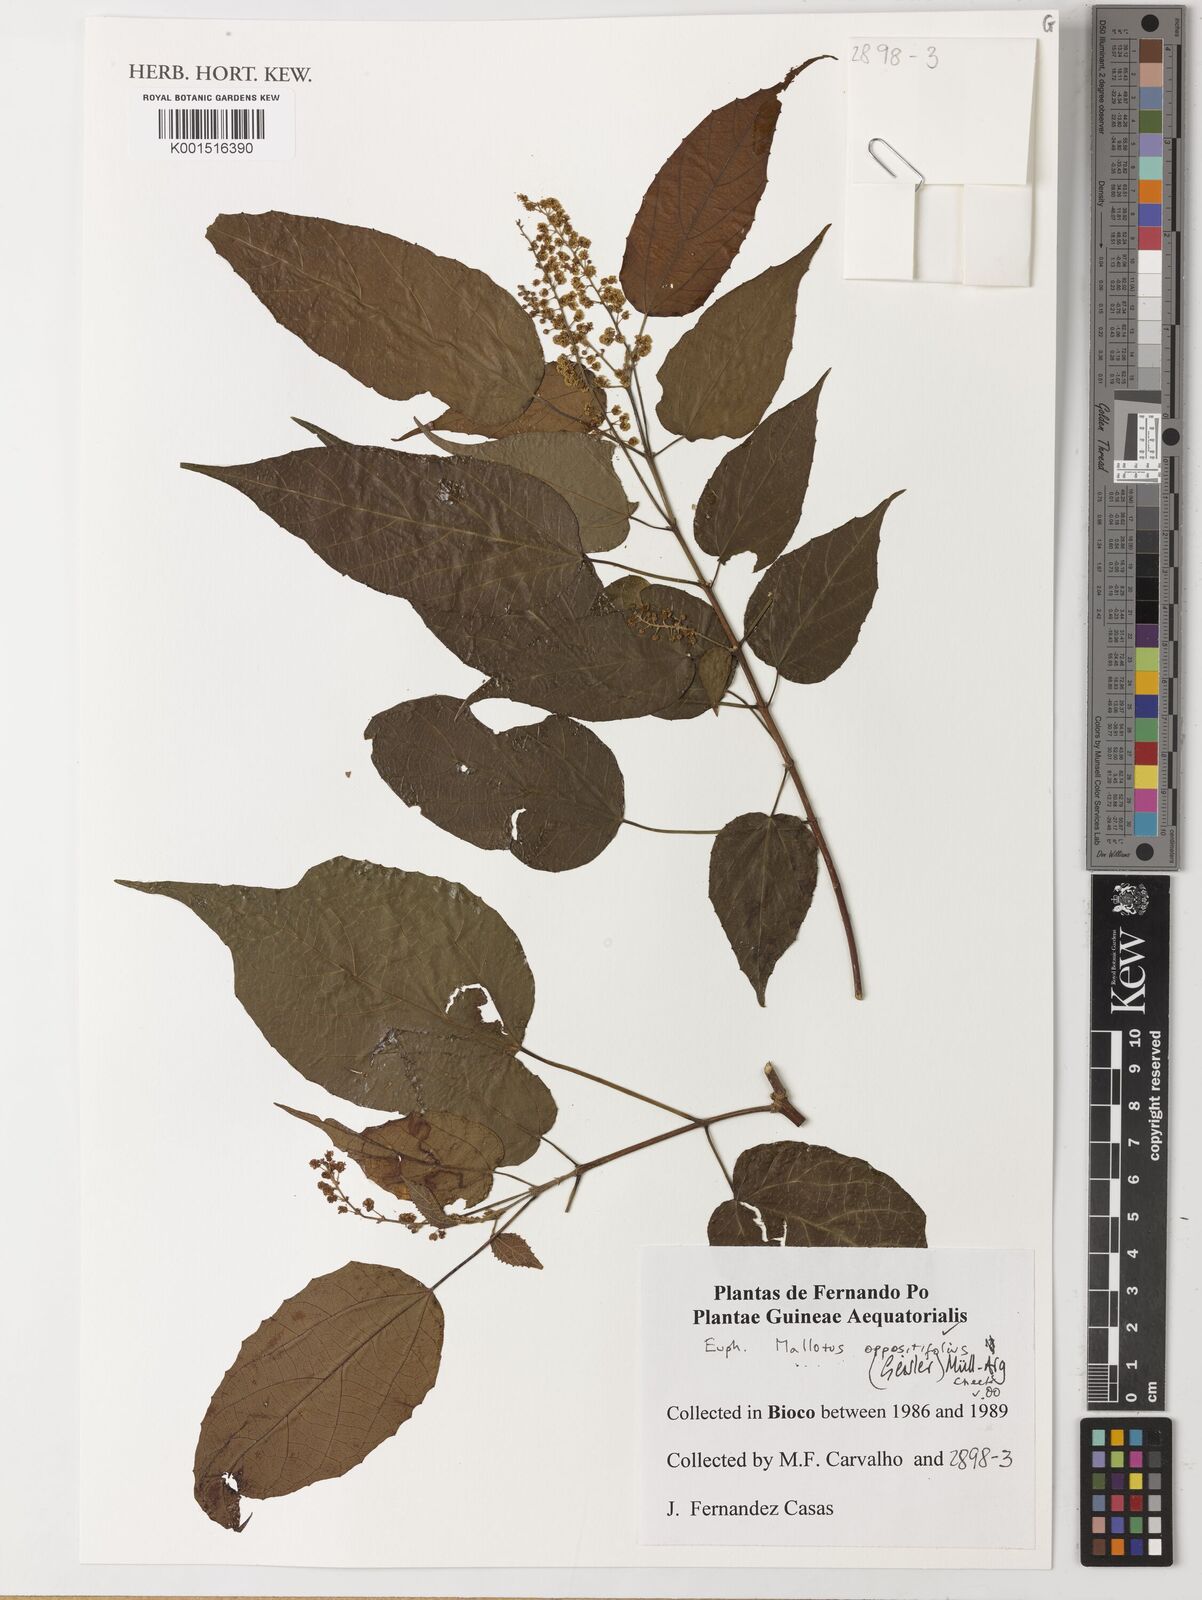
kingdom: Plantae
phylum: Tracheophyta
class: Magnoliopsida
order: Malpighiales
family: Euphorbiaceae
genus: Mallotus
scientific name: Mallotus oppositifolius
